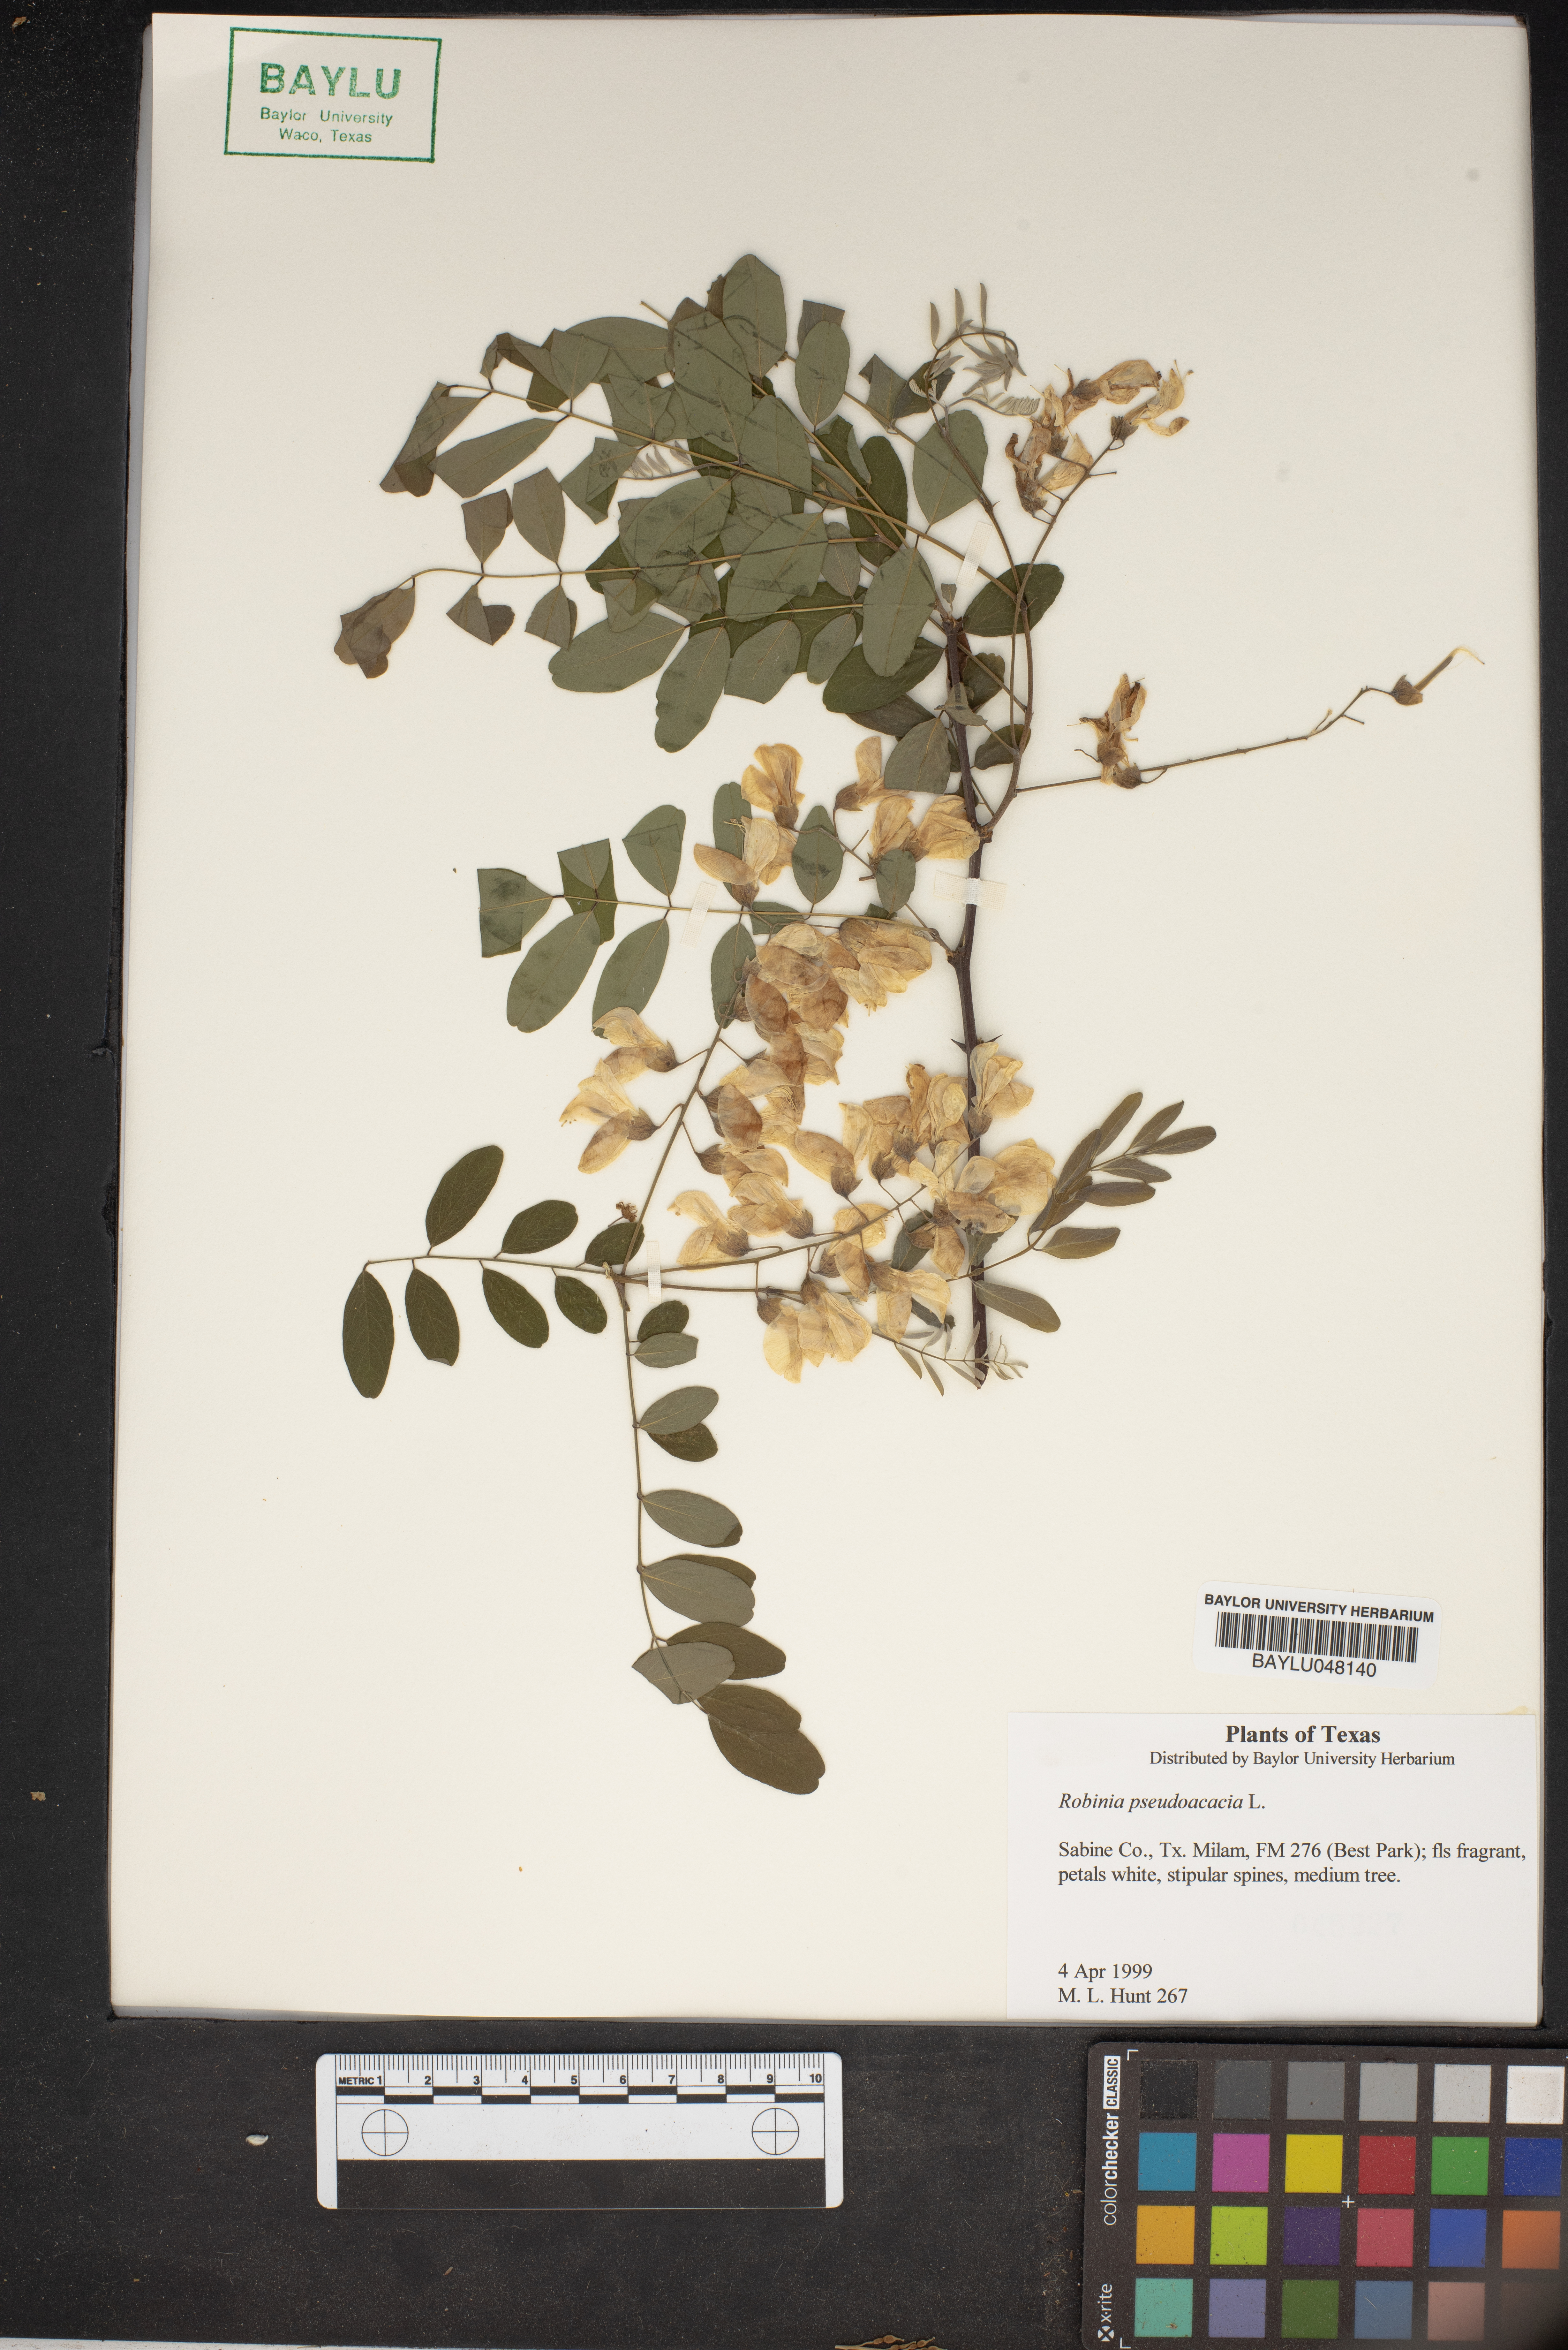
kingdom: Plantae
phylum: Tracheophyta
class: Magnoliopsida
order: Fabales
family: Fabaceae
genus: Robinia
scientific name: Robinia pseudoacacia
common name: Black locust
